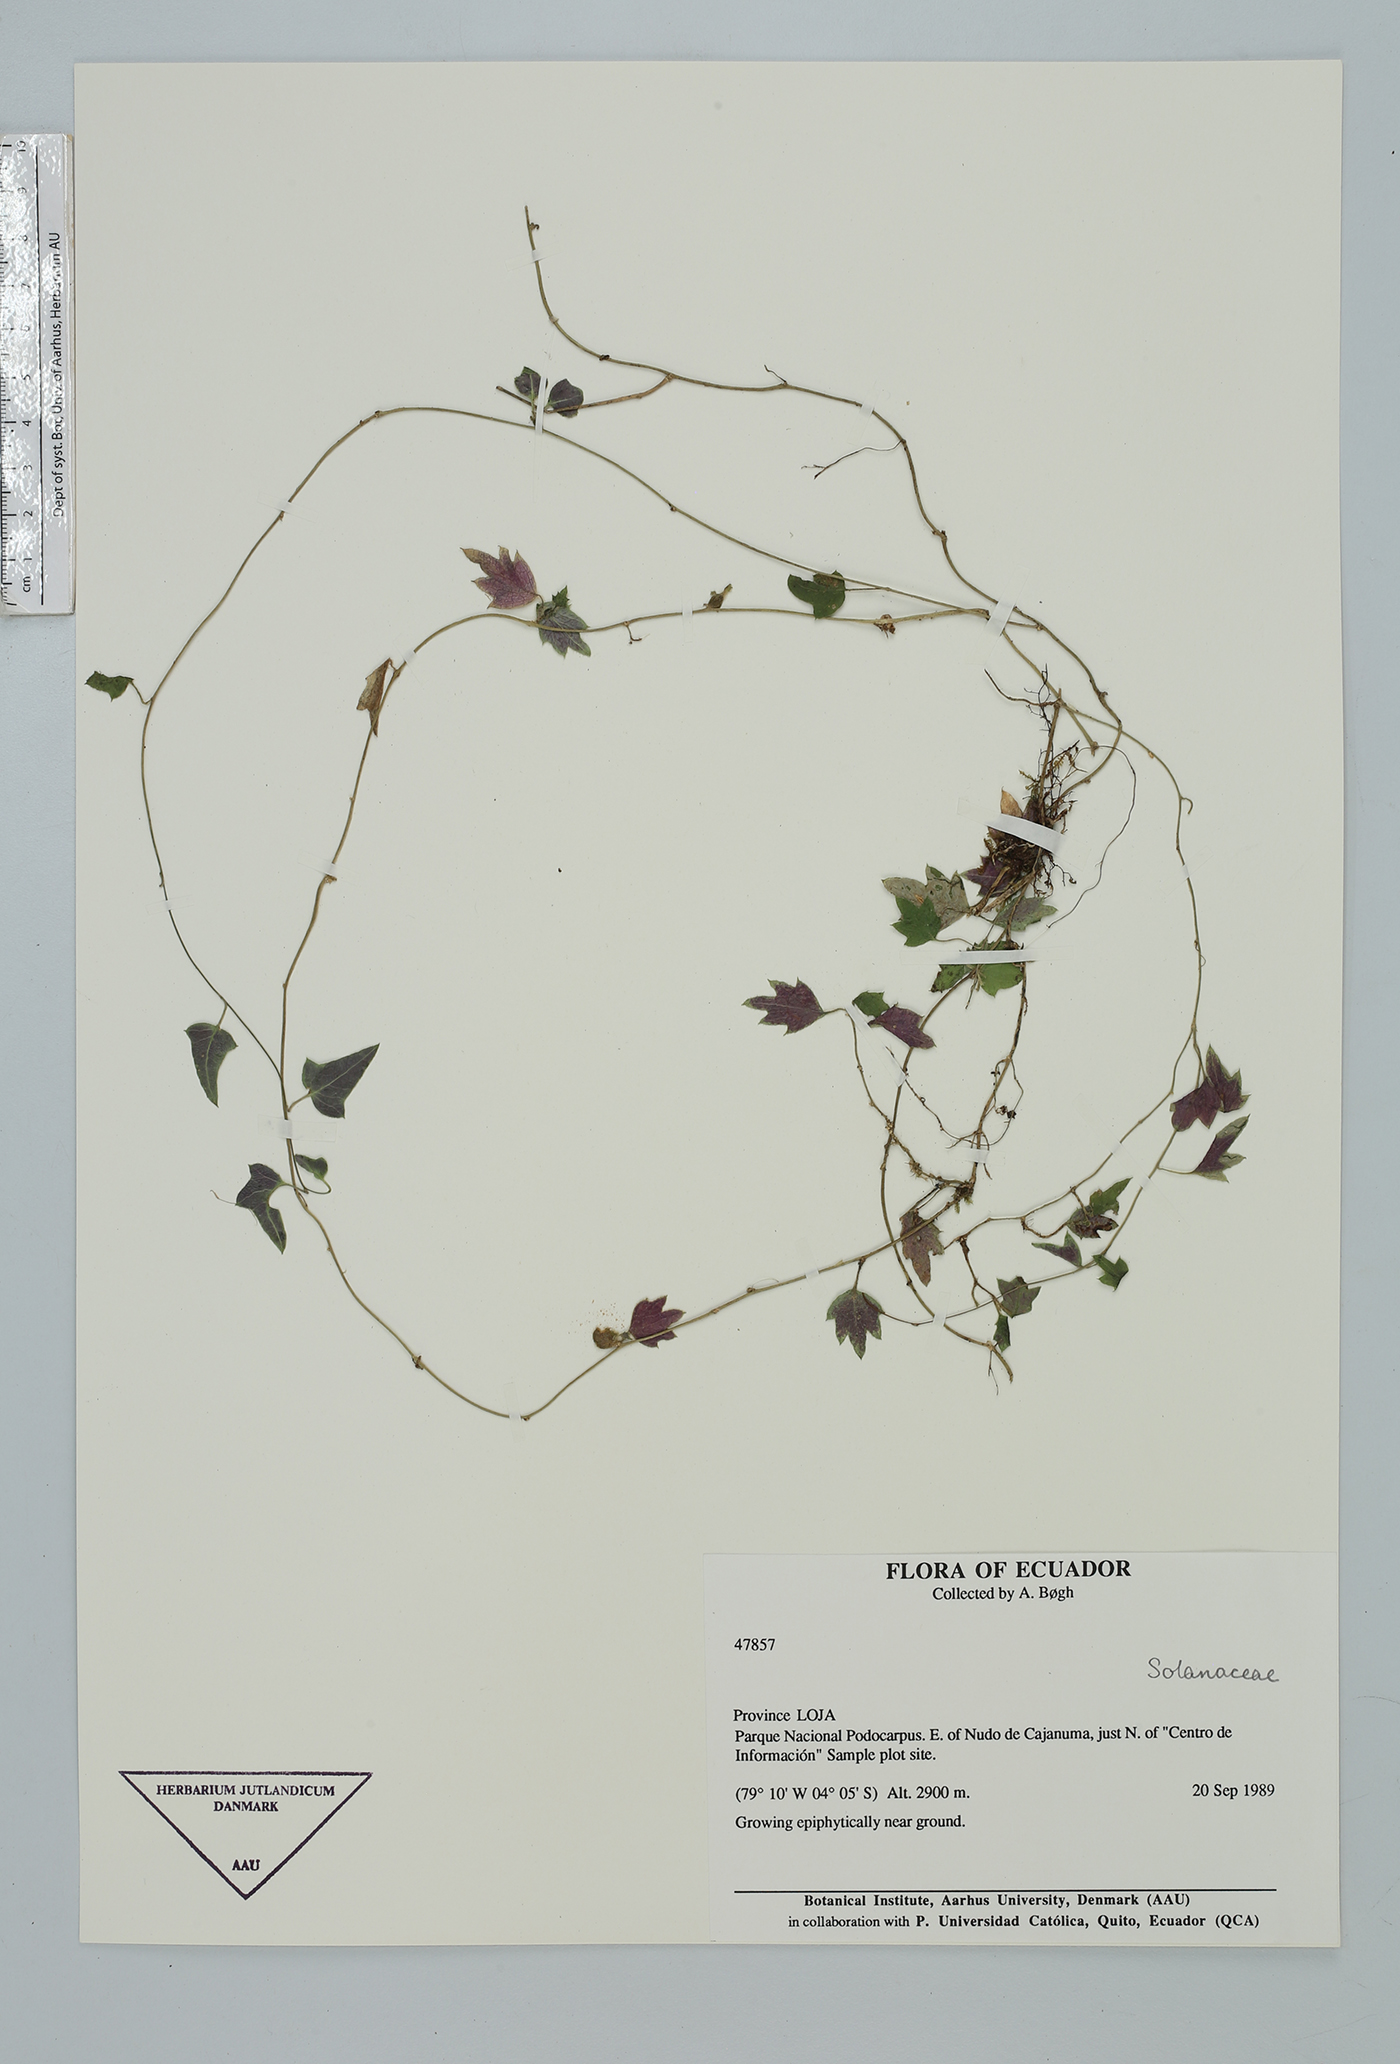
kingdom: Plantae
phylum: Tracheophyta
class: Magnoliopsida
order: Solanales
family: Solanaceae
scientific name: Solanaceae
